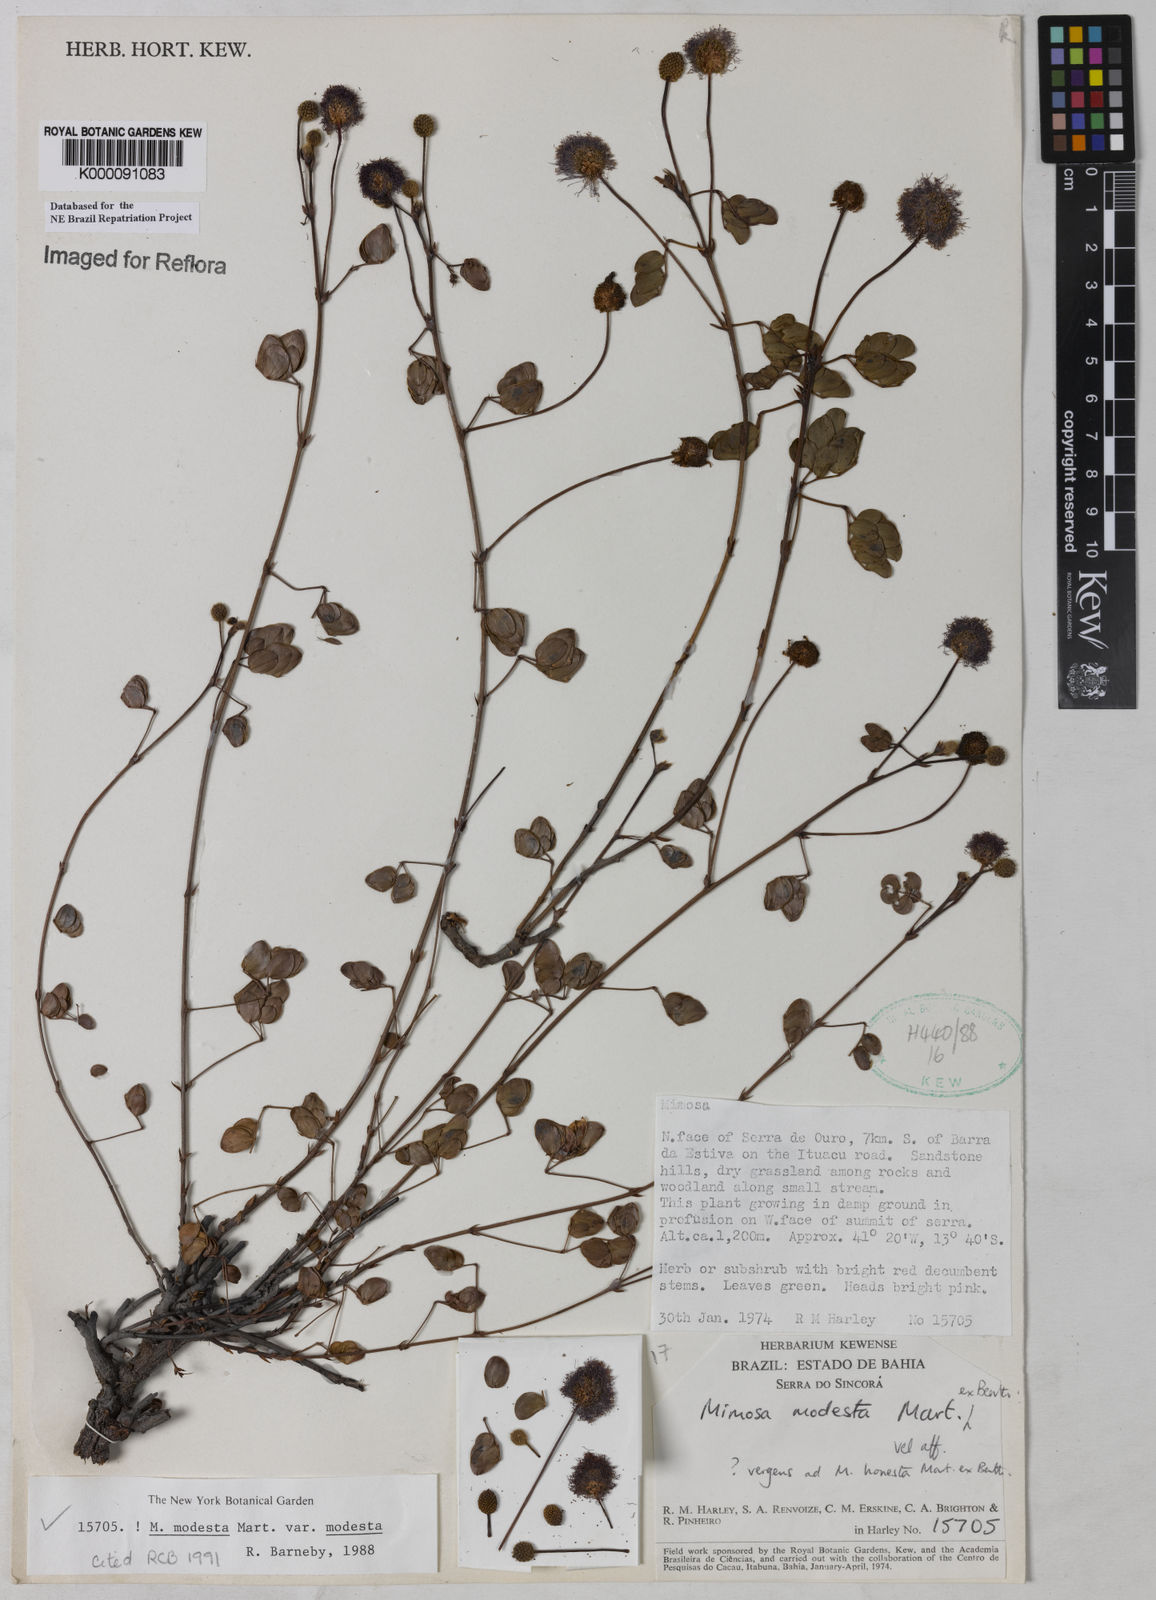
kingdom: Plantae
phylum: Tracheophyta
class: Magnoliopsida
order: Fabales
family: Fabaceae
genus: Mimosa
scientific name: Mimosa modesta
